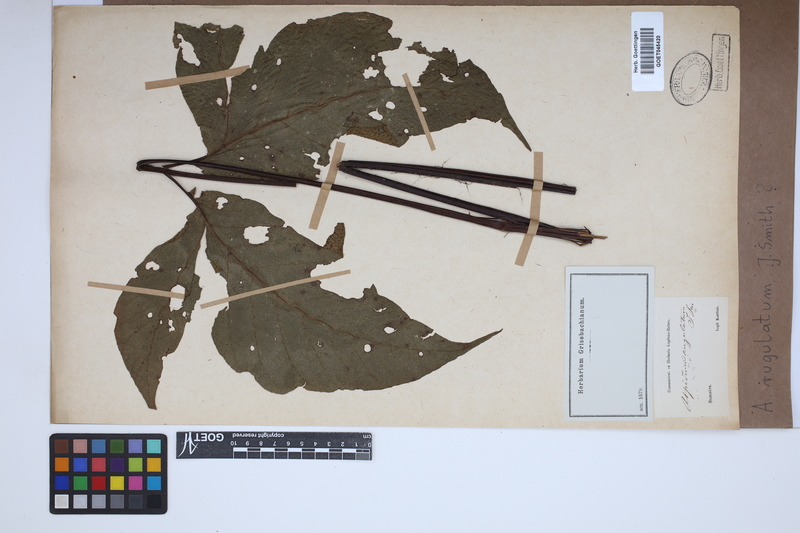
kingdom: Plantae
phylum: Tracheophyta
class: Polypodiopsida
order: Polypodiales
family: Tectariaceae
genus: Tectaria
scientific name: Tectaria Aspidium spec
